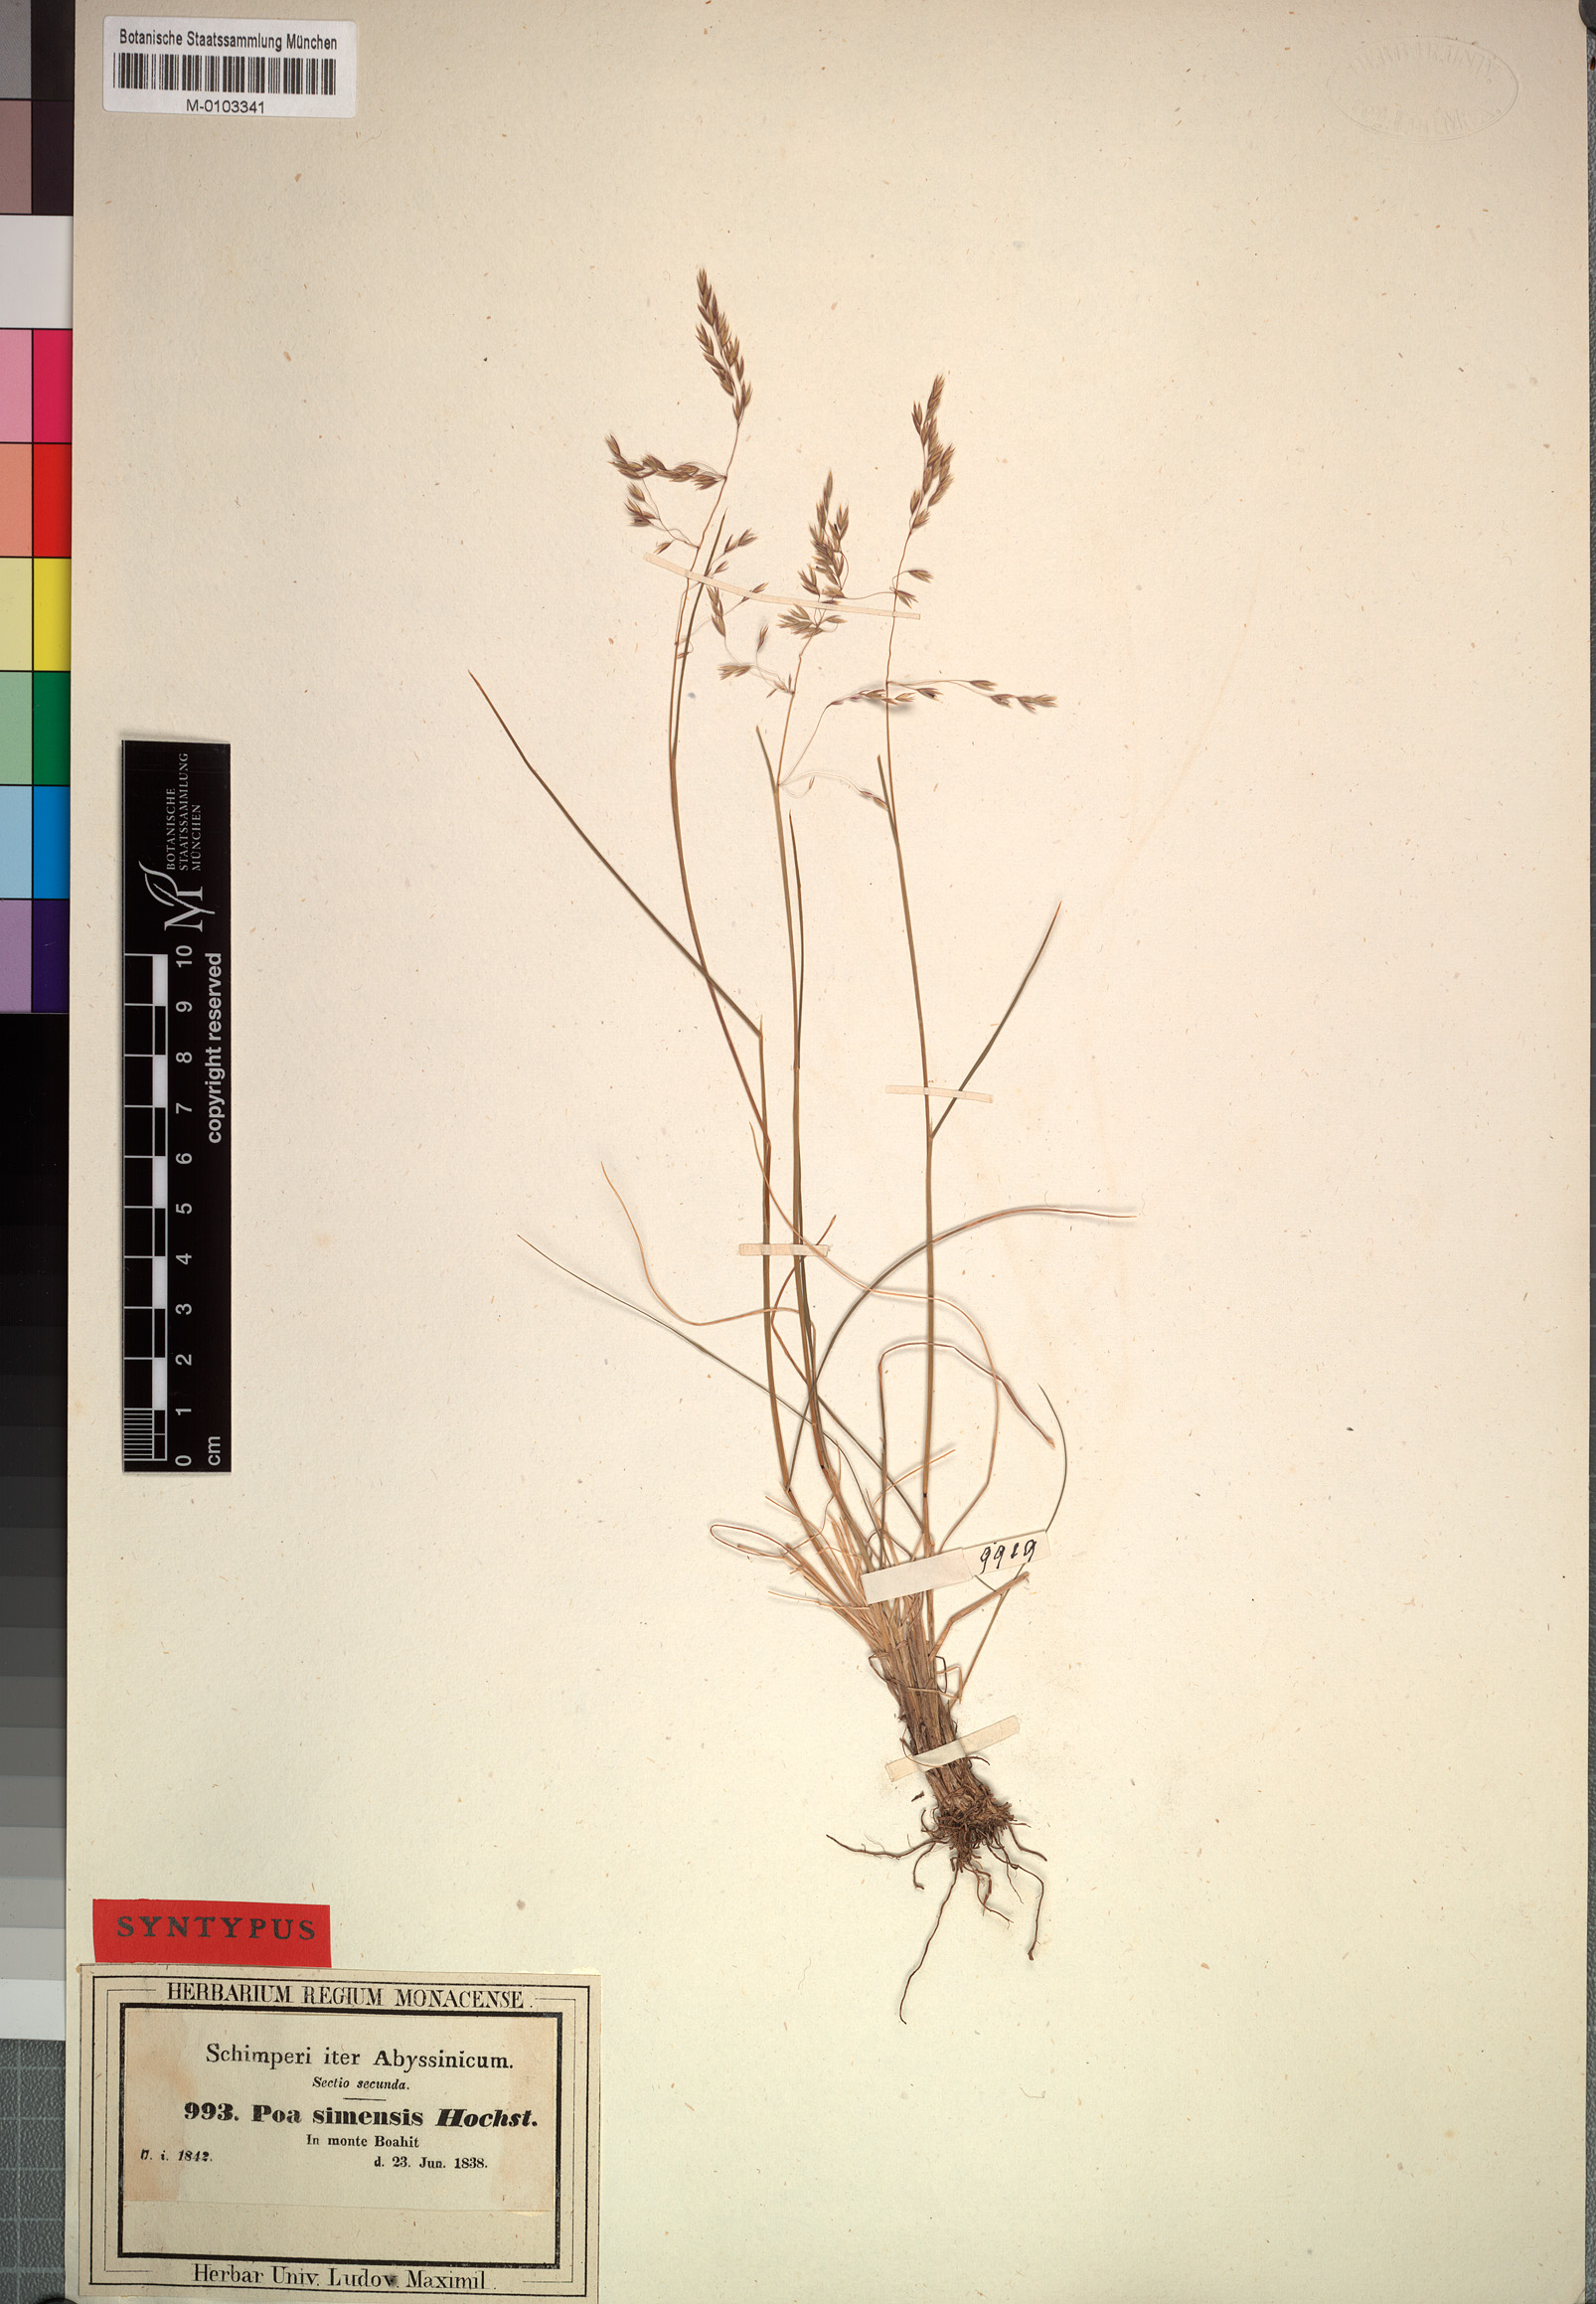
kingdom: Plantae
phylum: Tracheophyta
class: Liliopsida
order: Poales
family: Poaceae
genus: Poa
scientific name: Poa simensis
